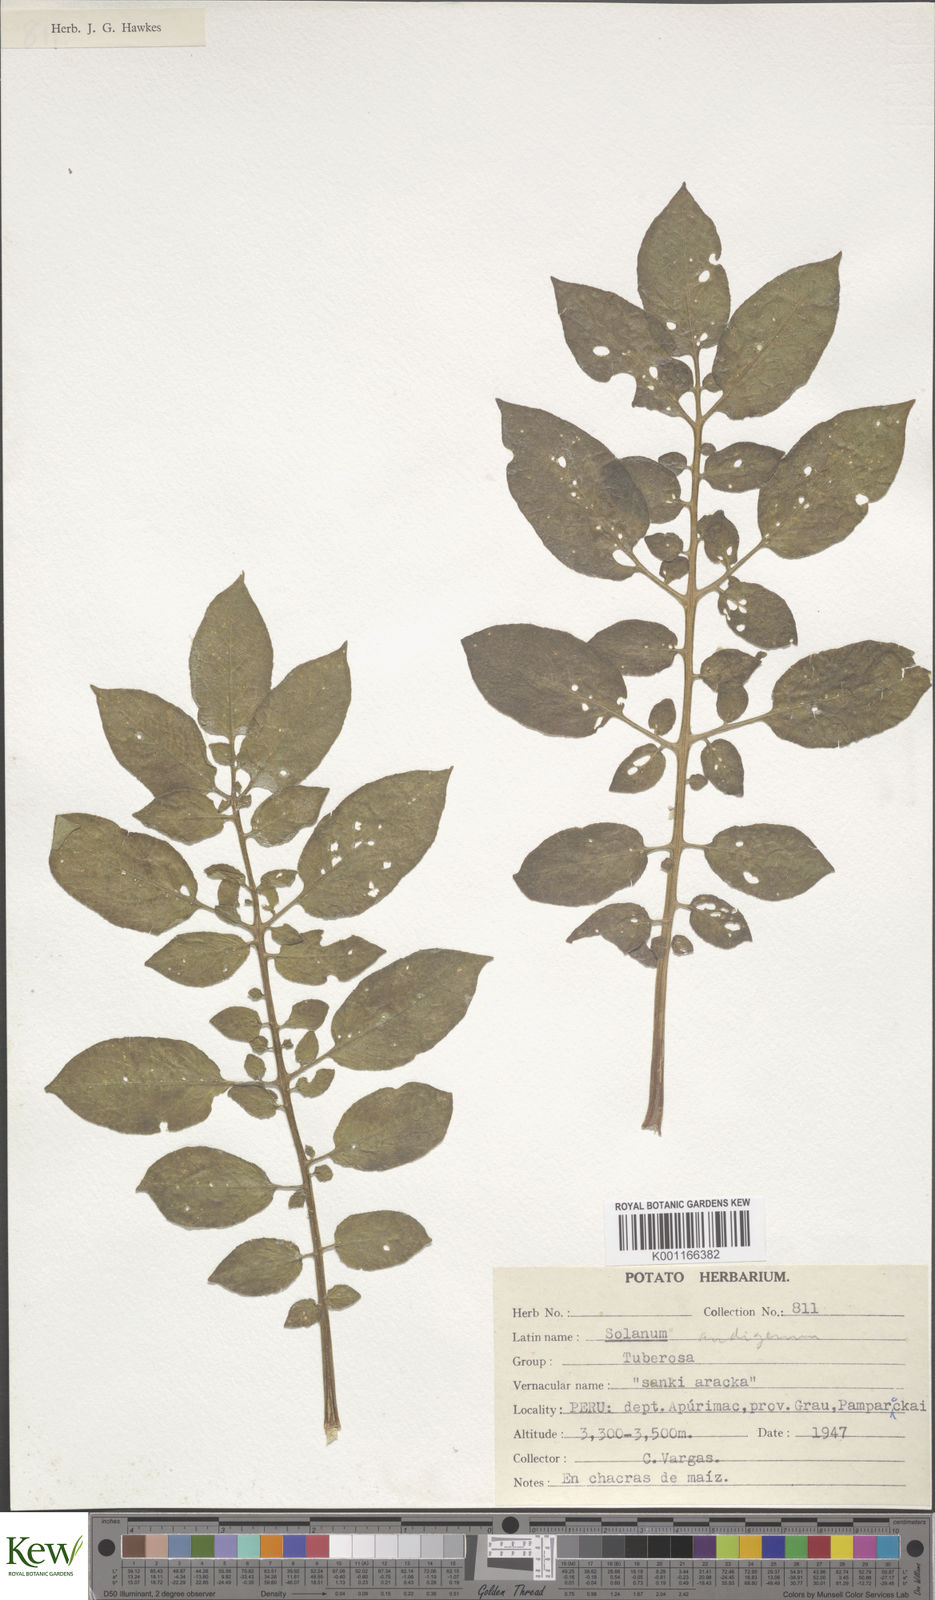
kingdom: Plantae
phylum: Tracheophyta
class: Magnoliopsida
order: Solanales
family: Solanaceae
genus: Solanum
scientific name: Solanum tuberosum
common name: Potato
